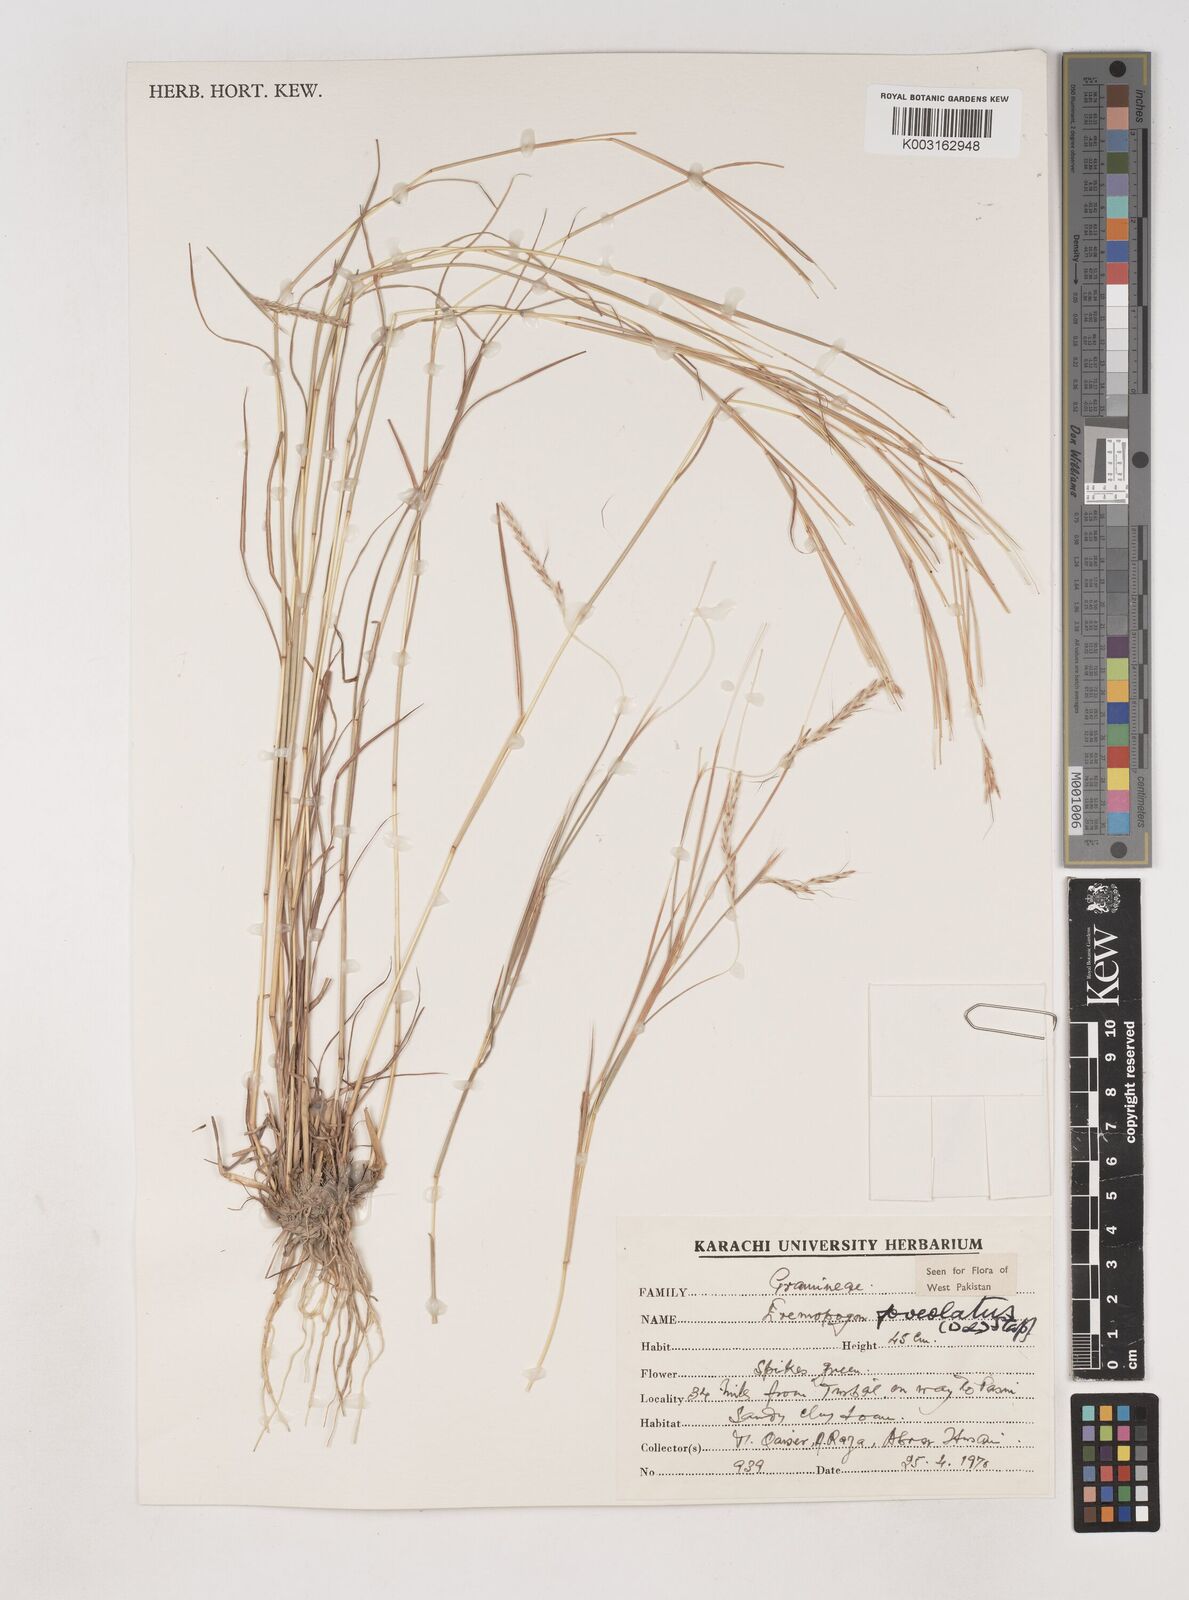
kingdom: Plantae
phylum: Tracheophyta
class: Liliopsida
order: Poales
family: Poaceae
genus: Dichanthium
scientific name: Dichanthium
